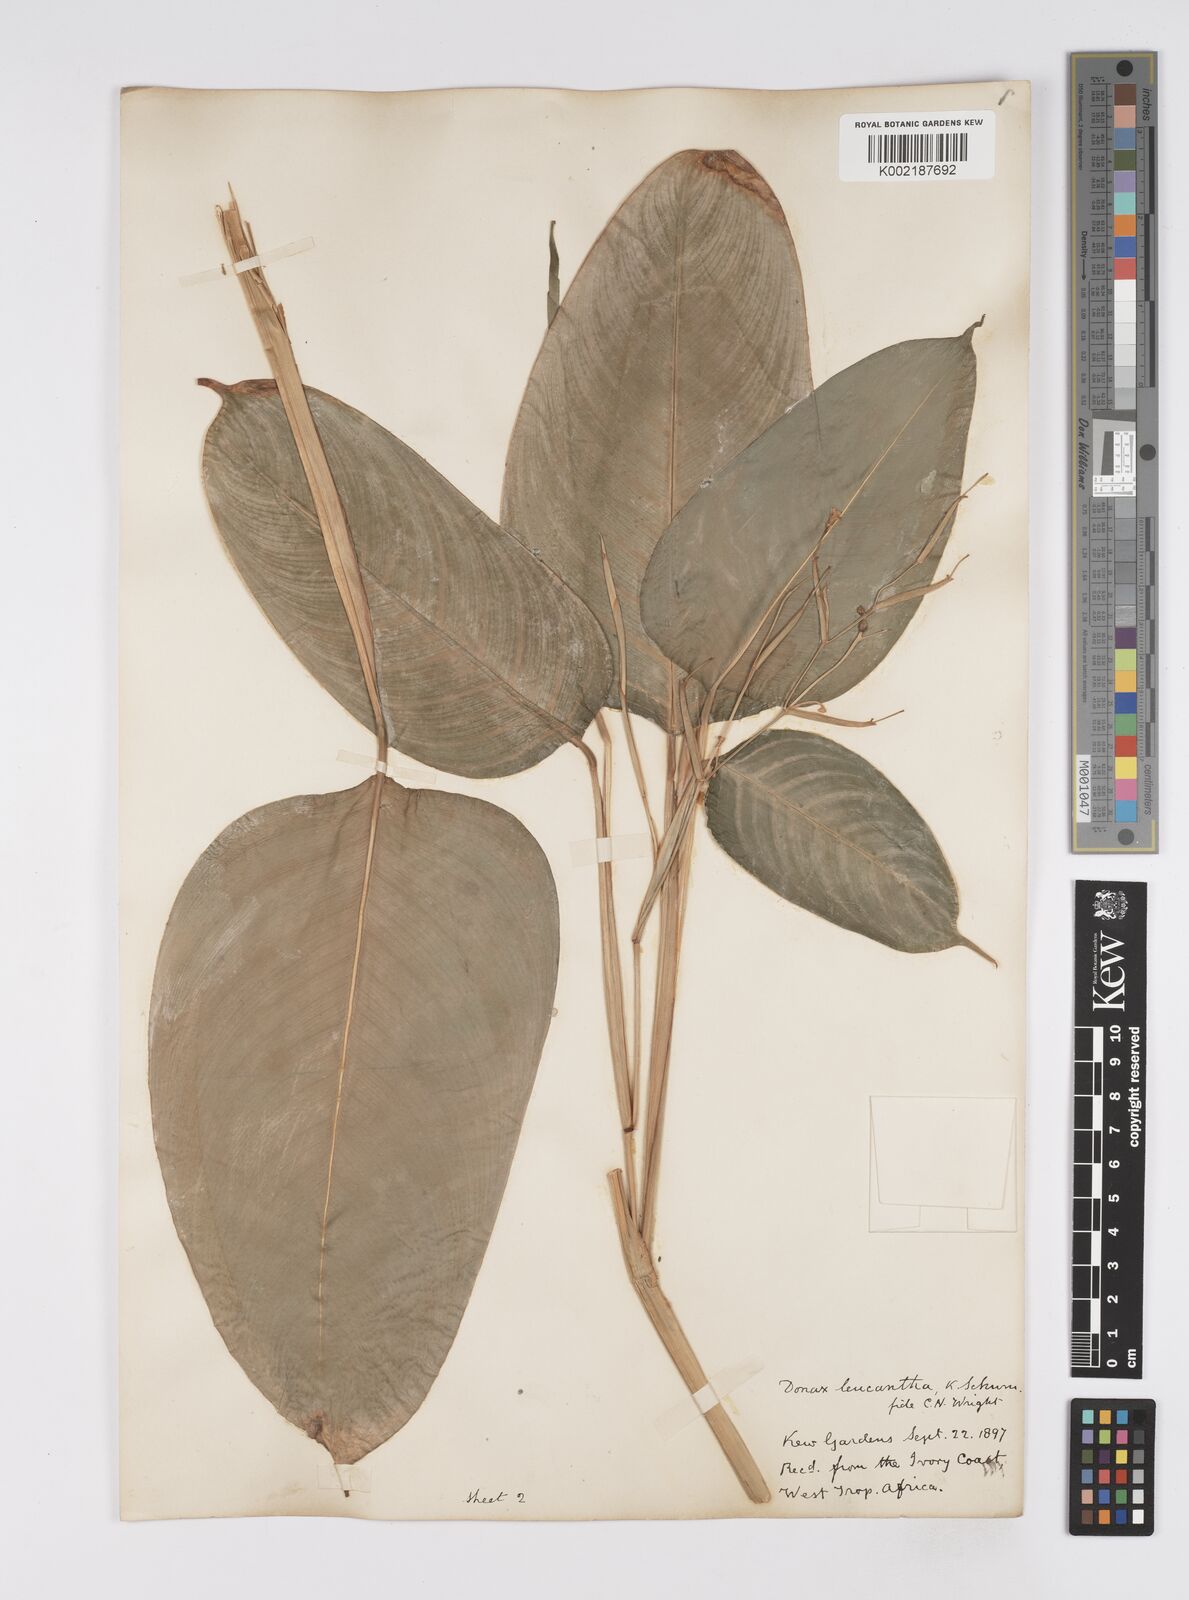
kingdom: Plantae
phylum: Tracheophyta
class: Liliopsida
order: Zingiberales
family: Marantaceae
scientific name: Marantaceae
